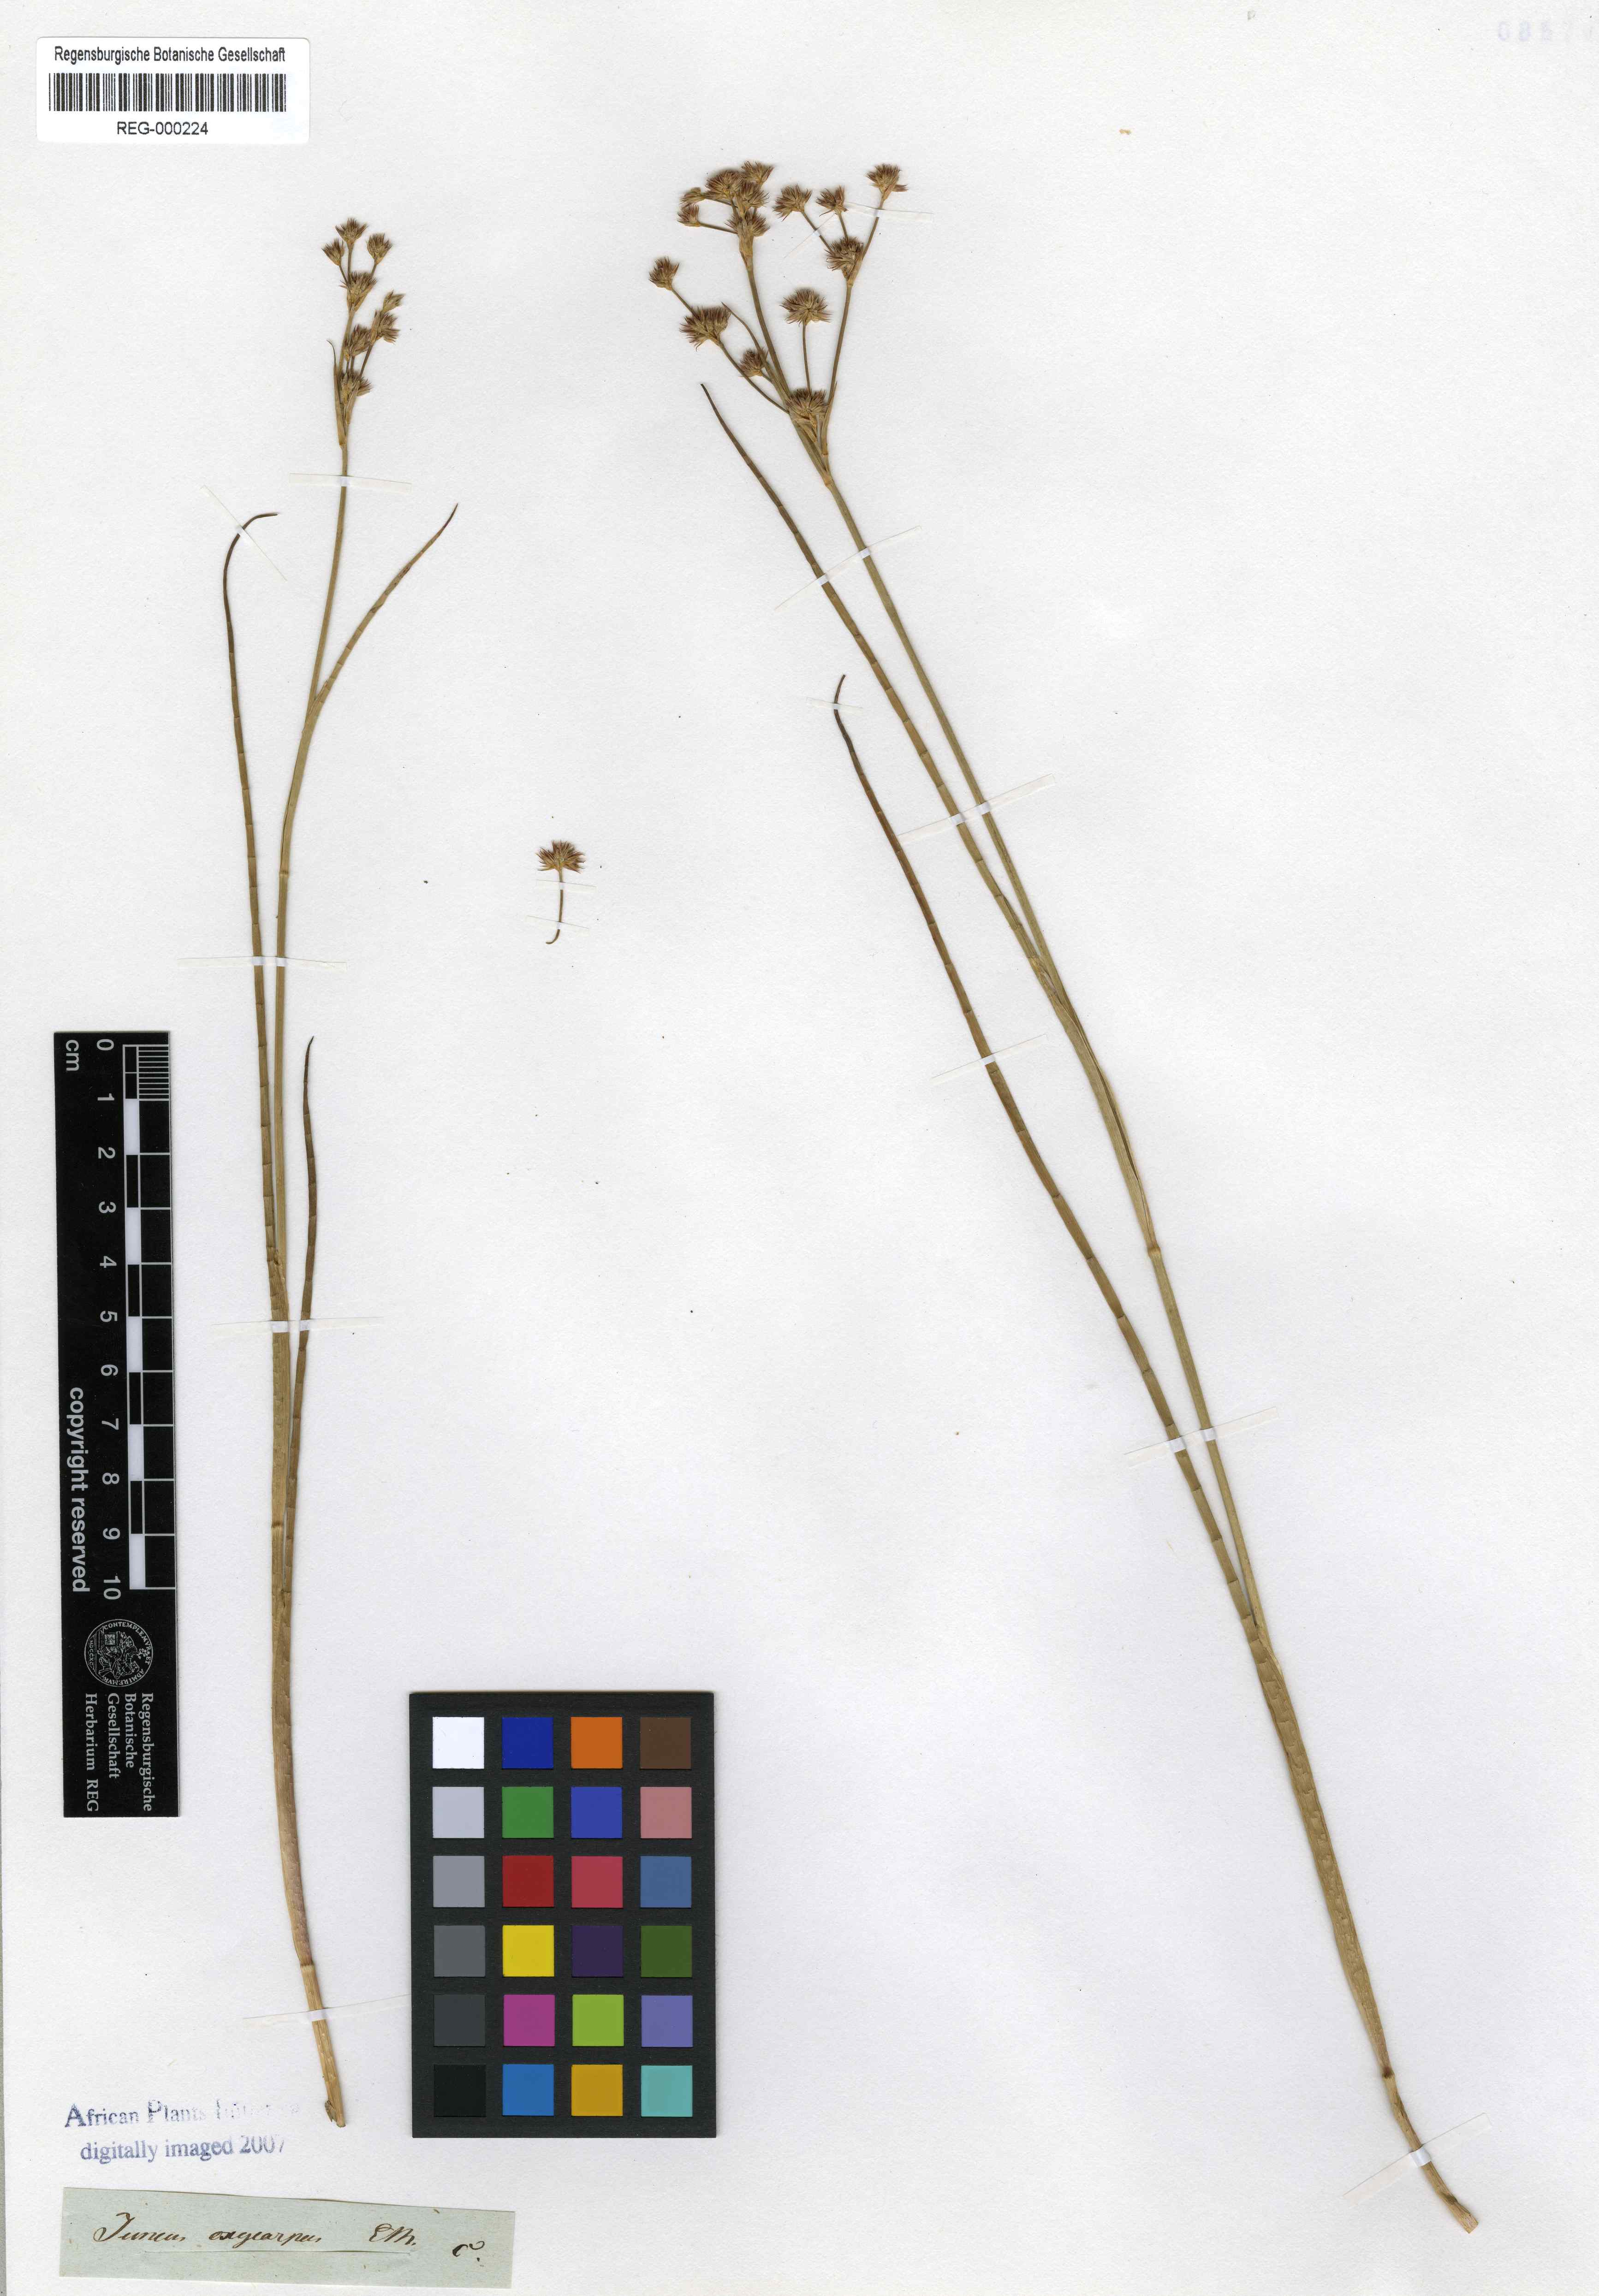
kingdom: Plantae
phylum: Tracheophyta
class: Liliopsida
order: Poales
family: Juncaceae
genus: Juncus
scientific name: Juncus oxycarpus
